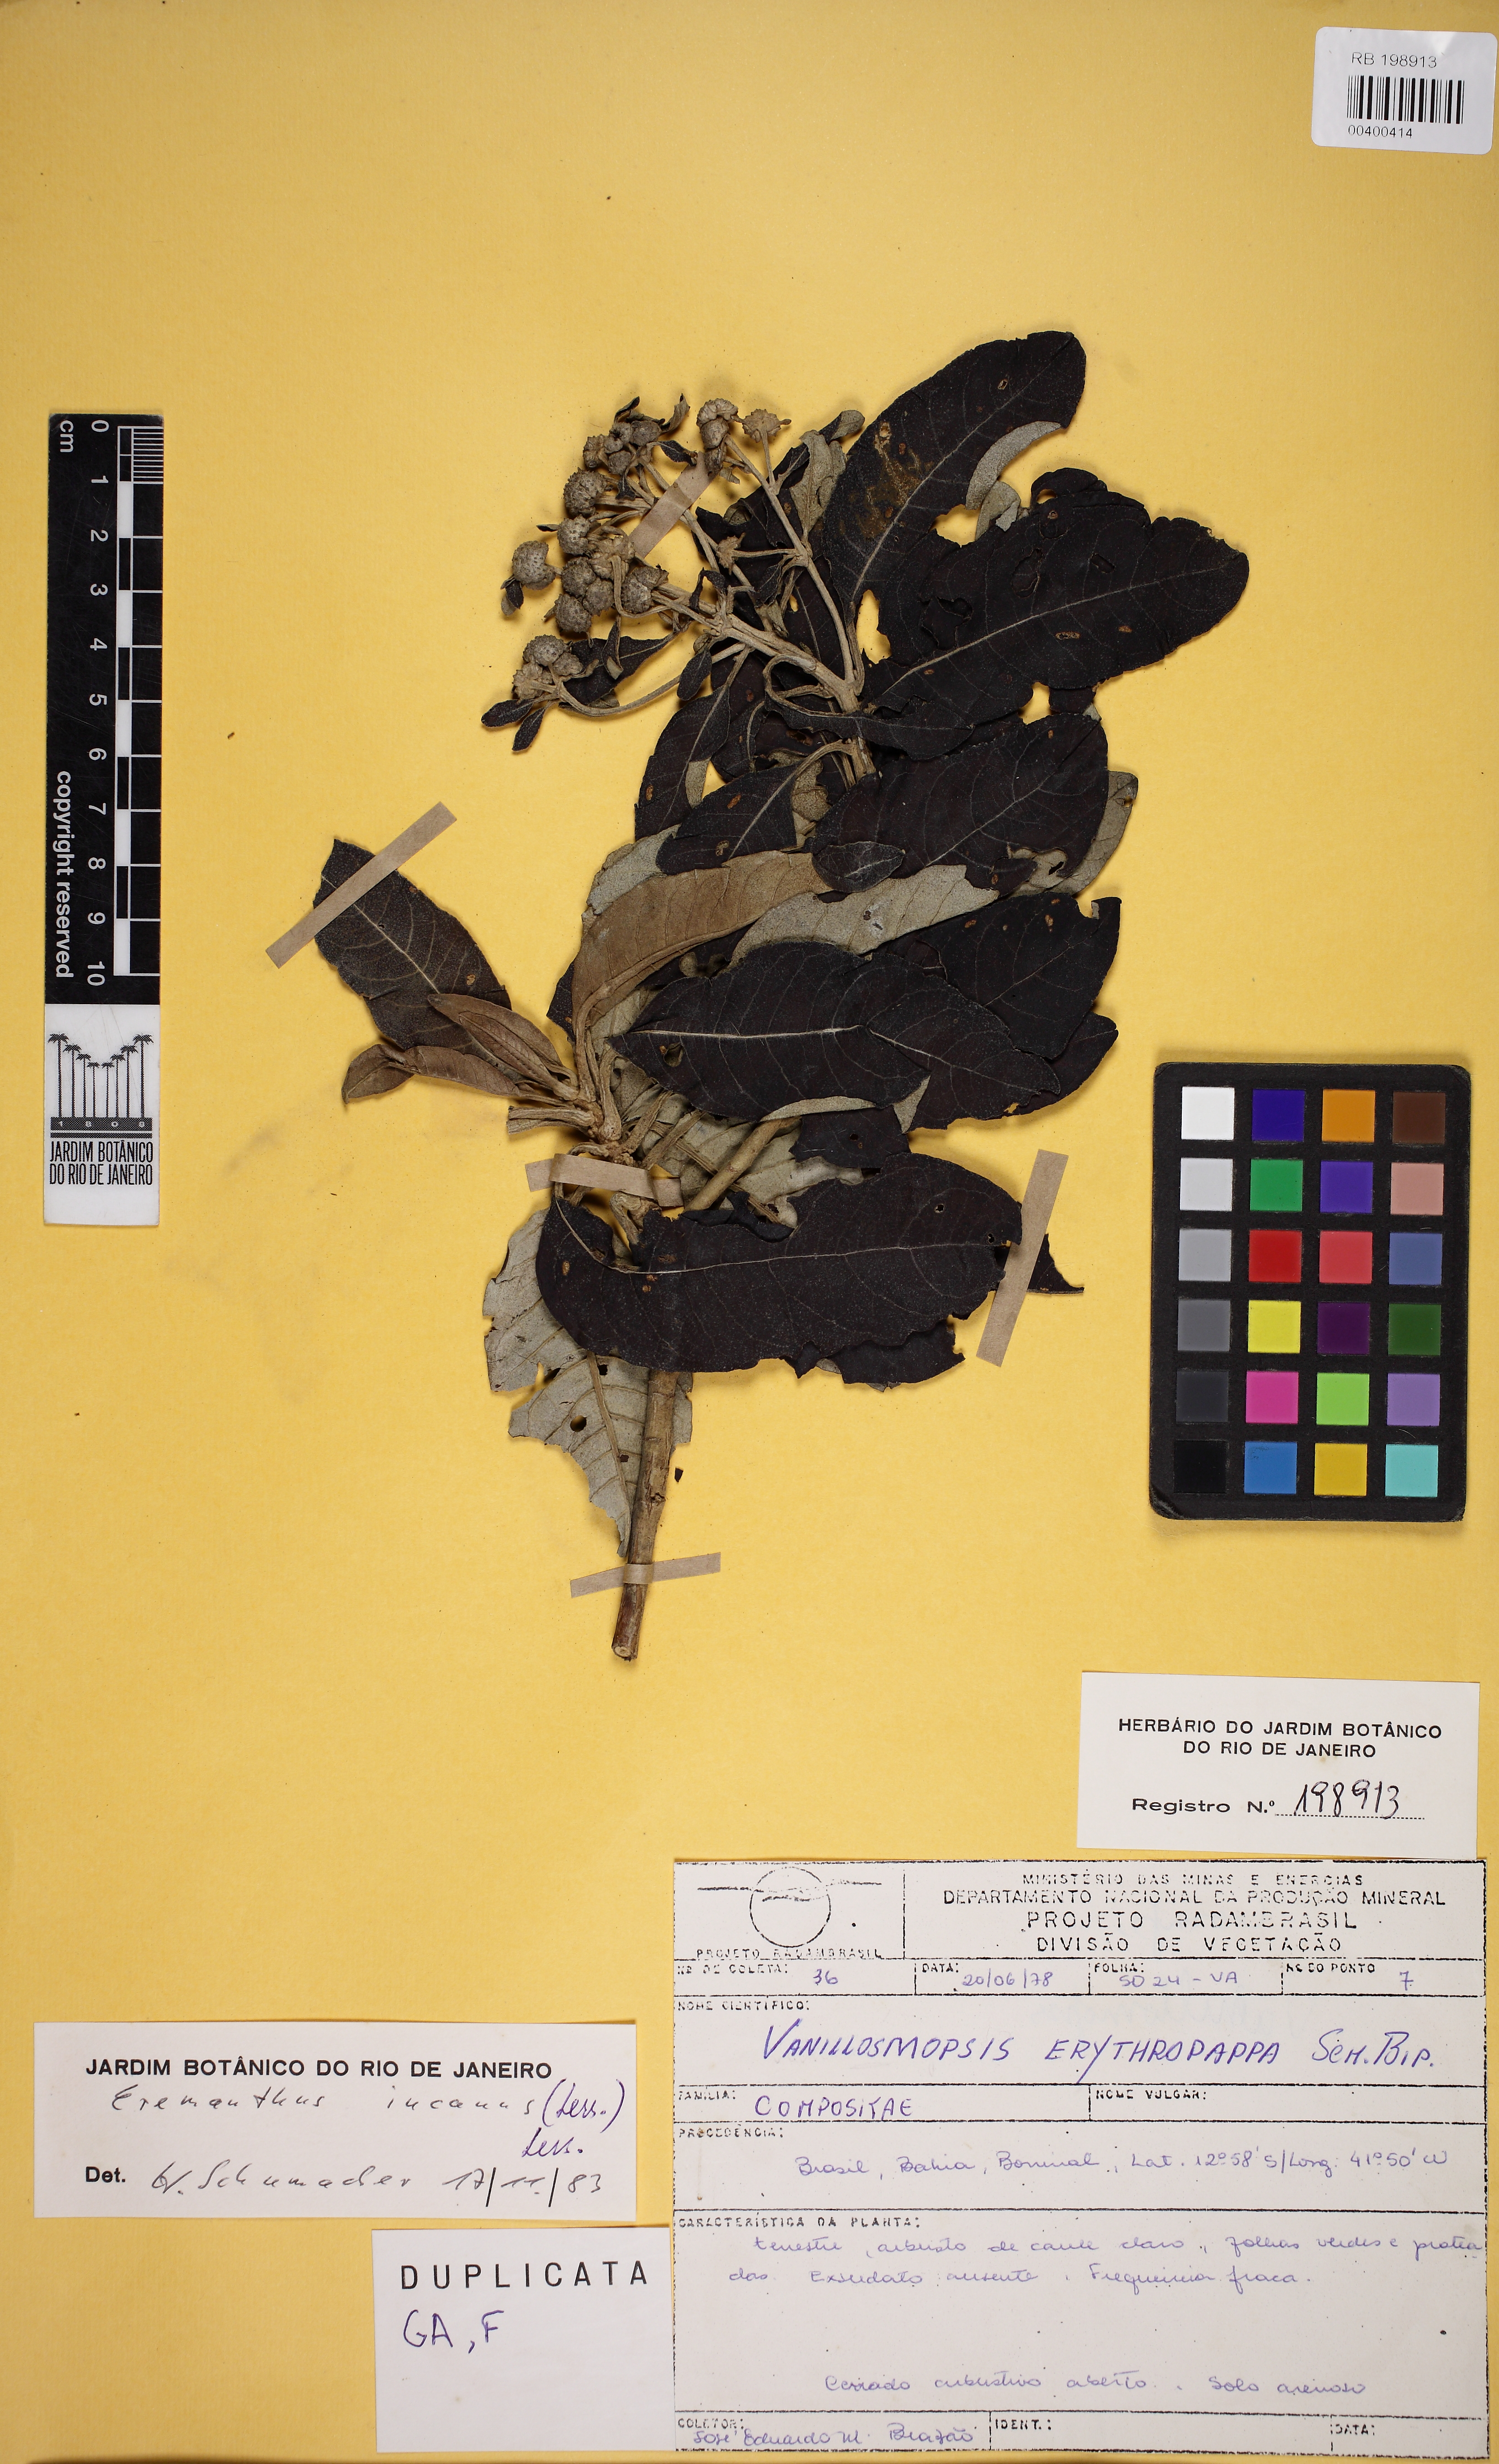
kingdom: Plantae
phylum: Tracheophyta
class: Magnoliopsida
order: Asterales
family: Asteraceae
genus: Eremanthus
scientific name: Eremanthus incanus
